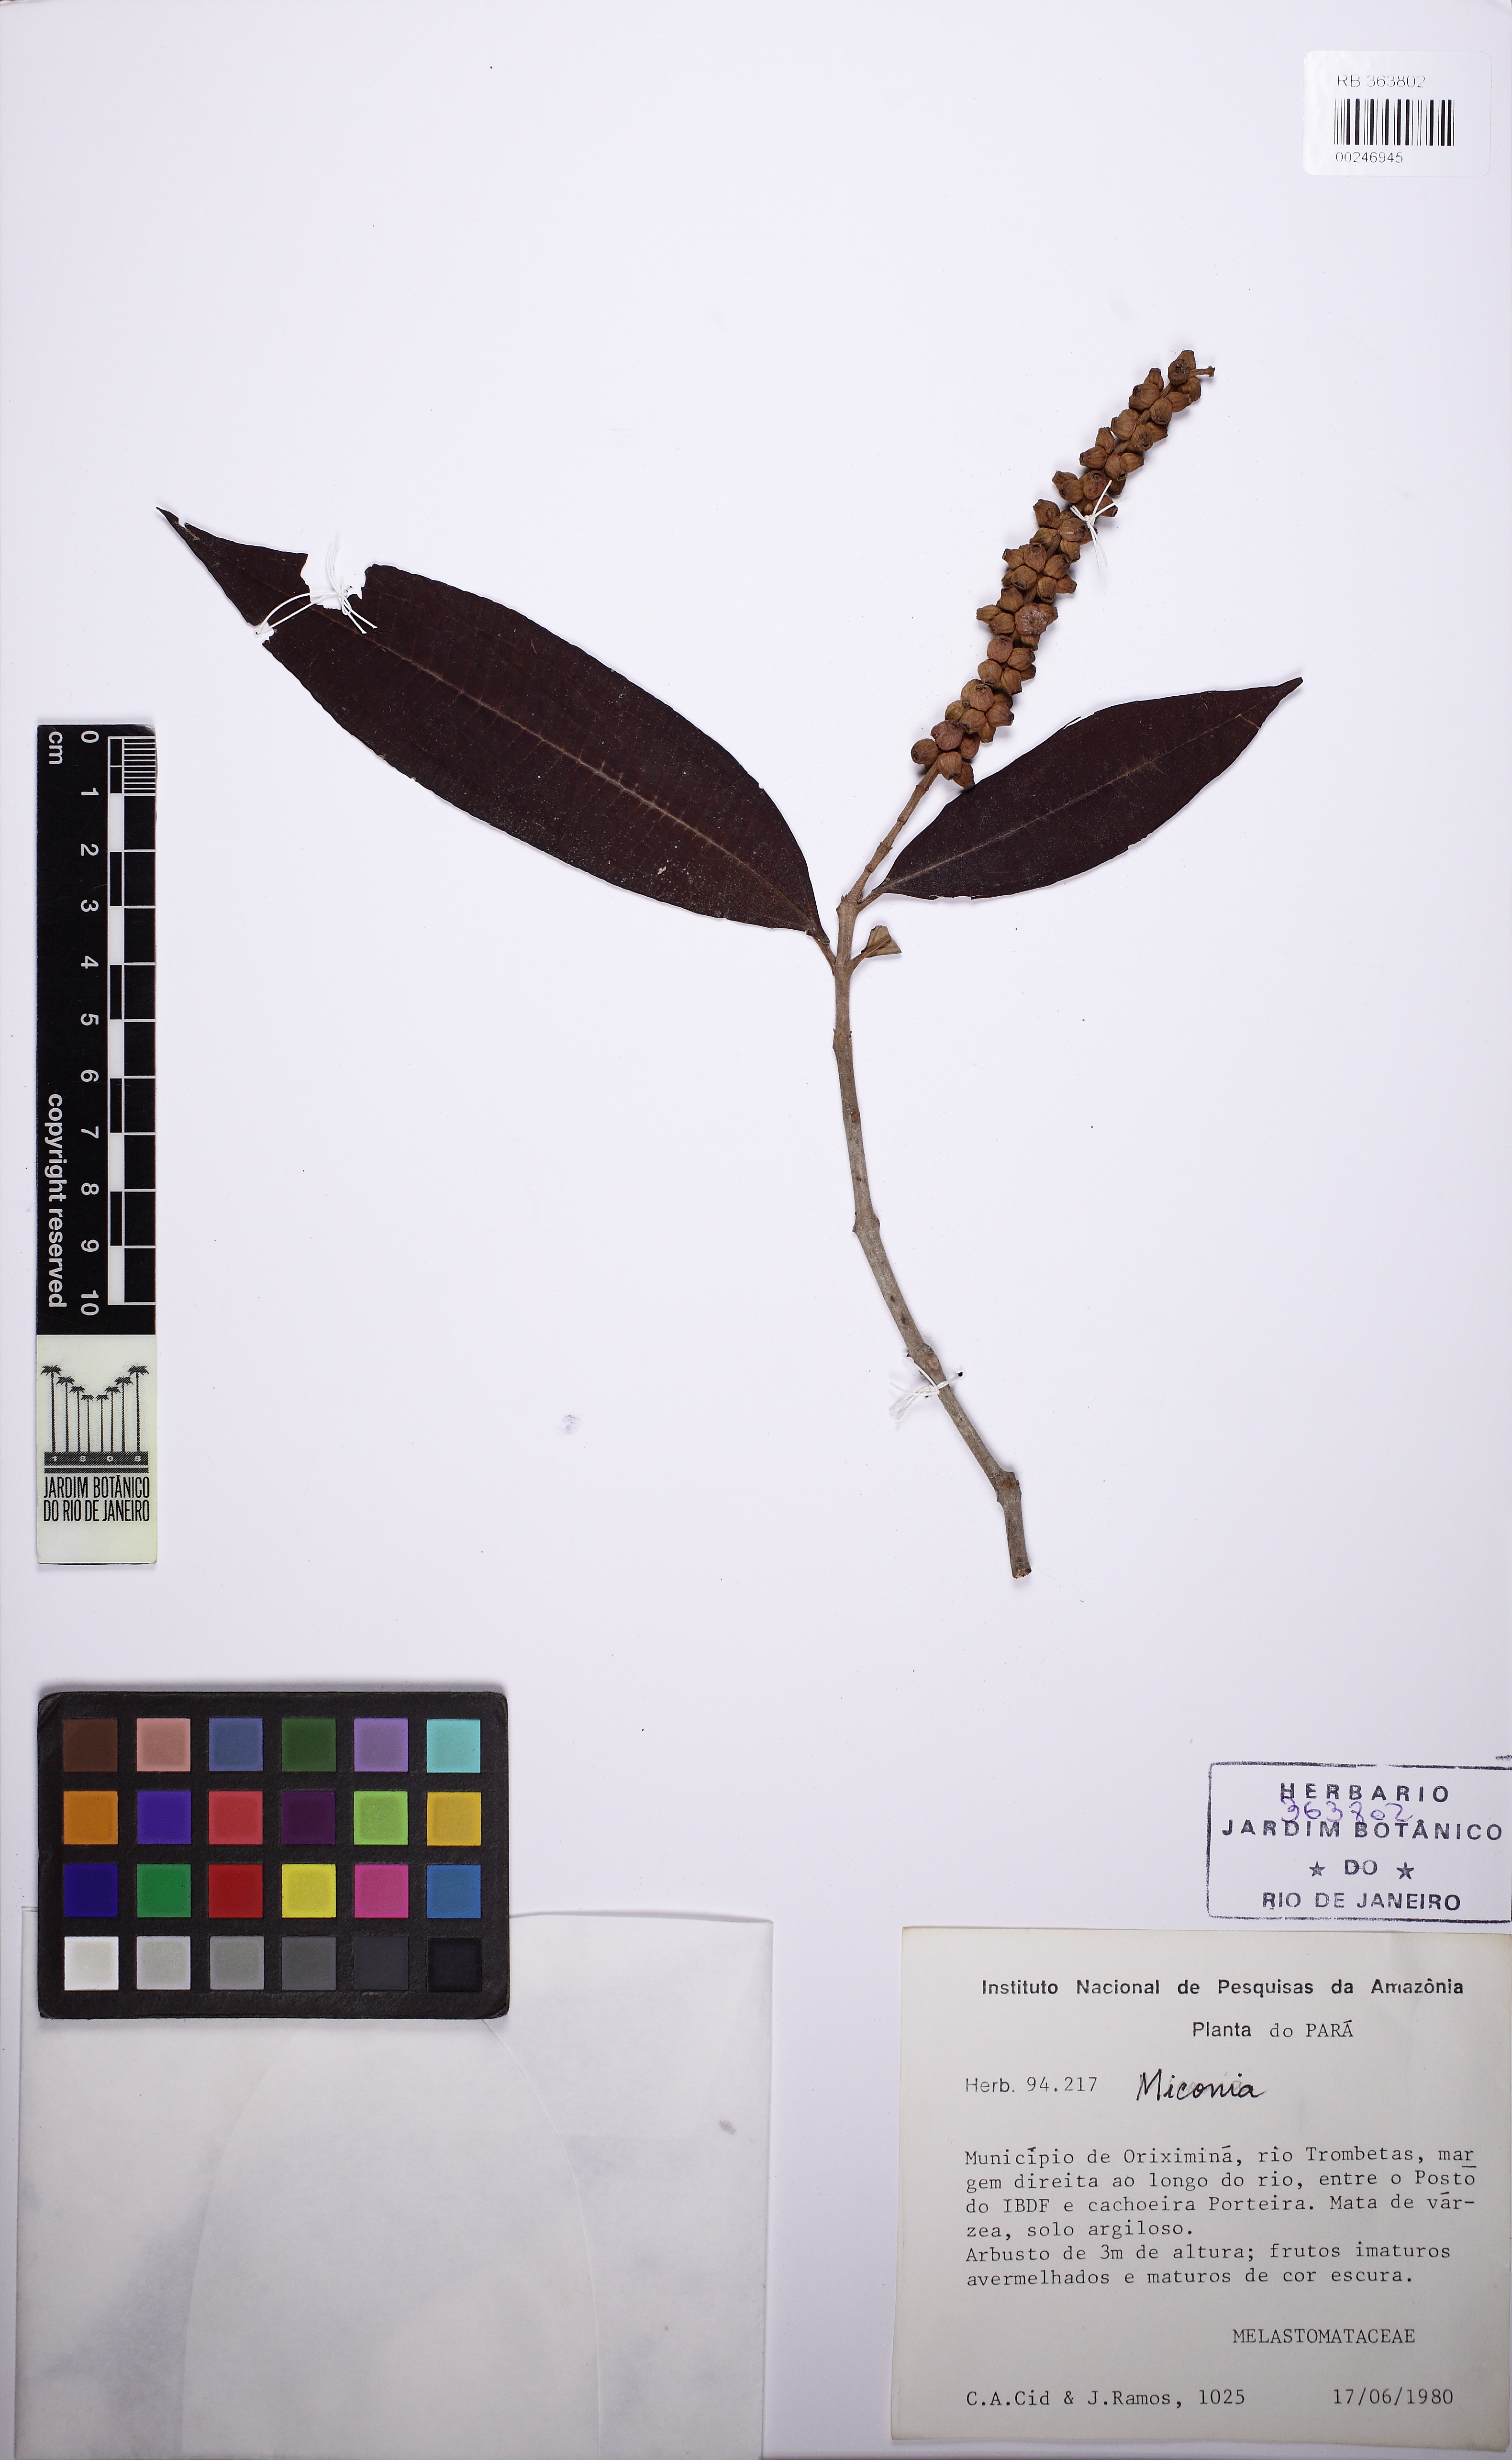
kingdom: Plantae
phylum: Tracheophyta
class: Magnoliopsida
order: Myrtales
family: Melastomataceae
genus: Miconia
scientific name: Miconia aplostachya
